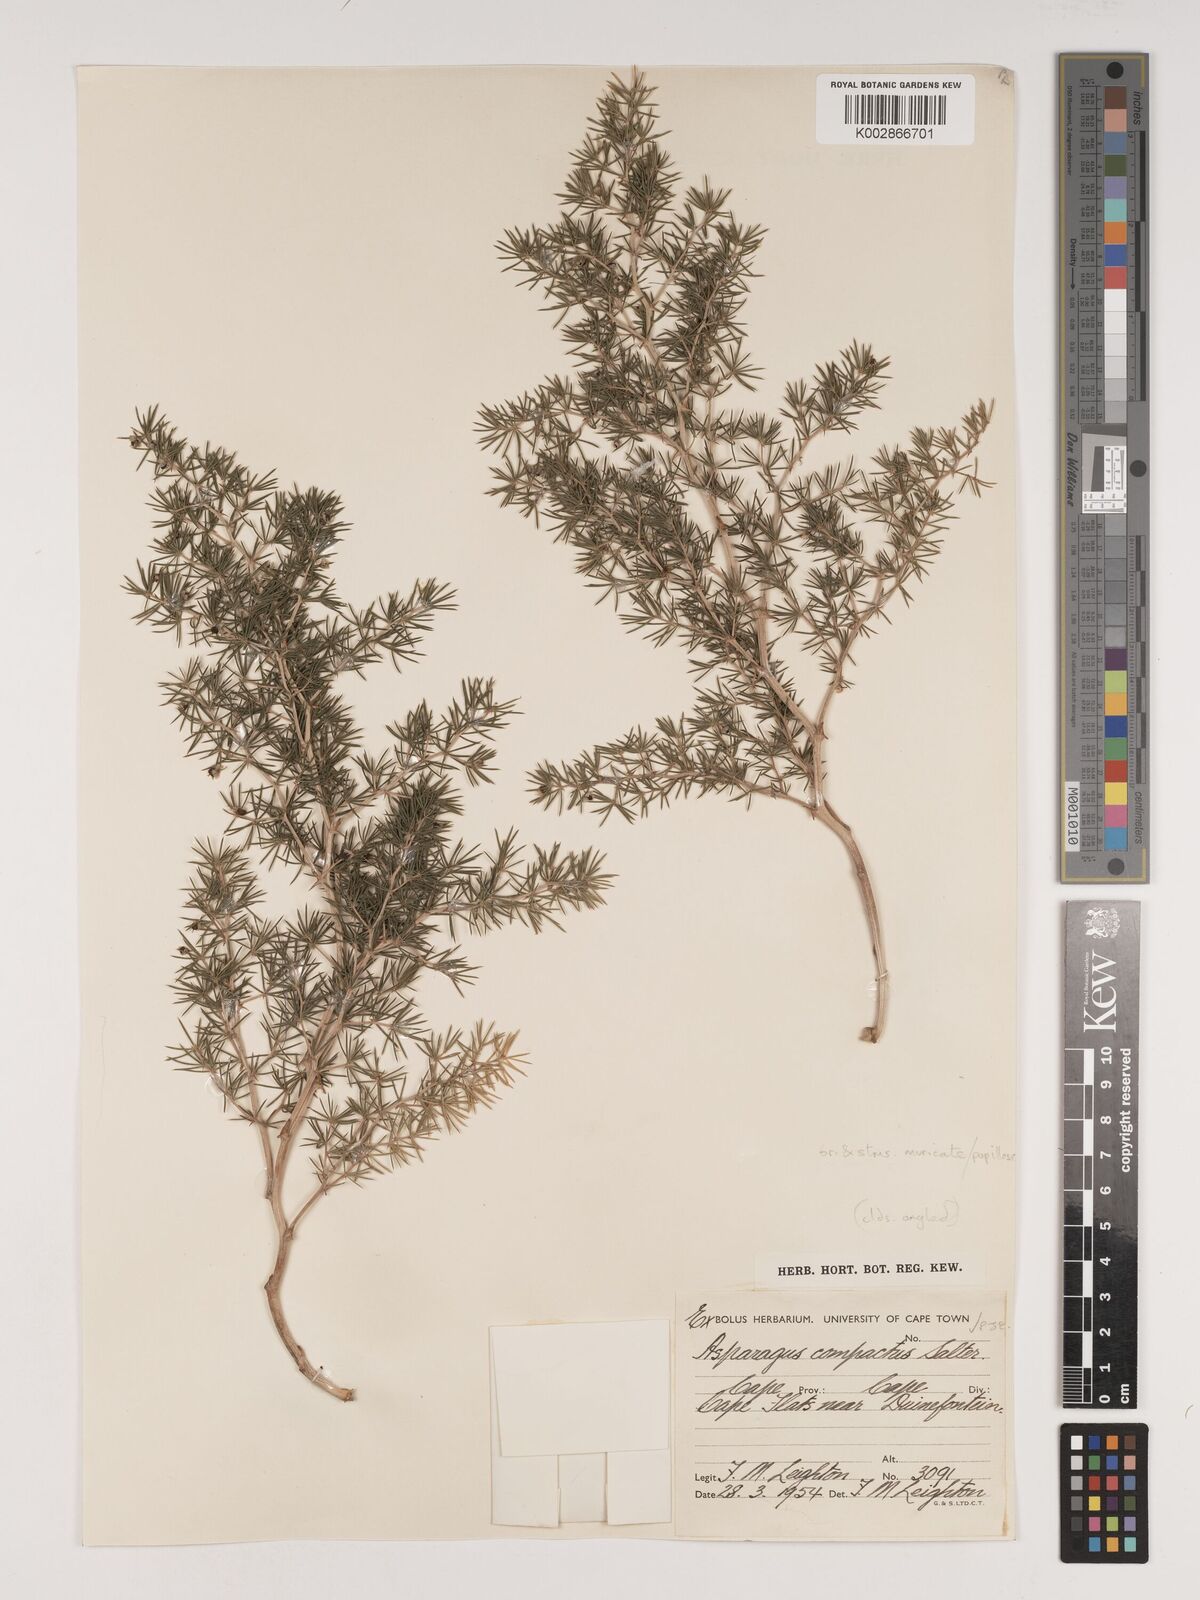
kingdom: Plantae
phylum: Tracheophyta
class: Liliopsida
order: Asparagales
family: Asparagaceae
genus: Asparagus
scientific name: Asparagus lignosus
